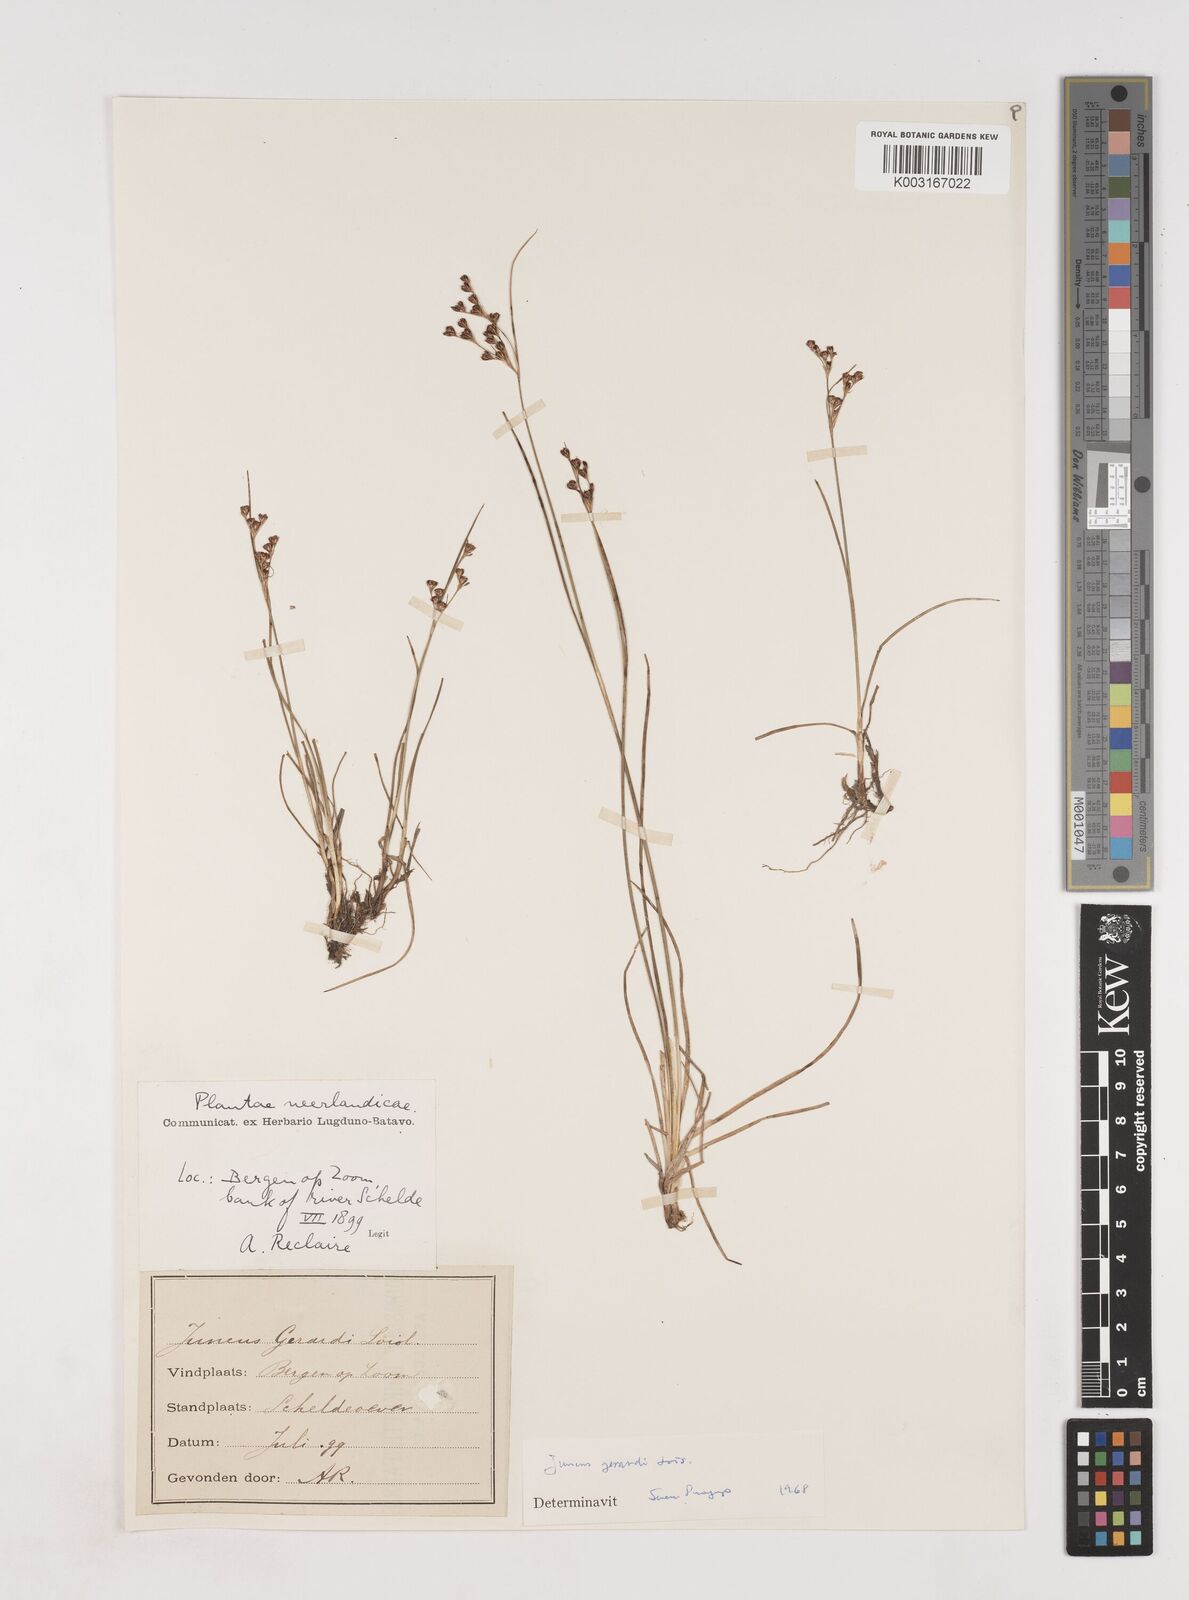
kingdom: Plantae
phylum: Tracheophyta
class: Liliopsida
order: Poales
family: Juncaceae
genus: Juncus
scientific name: Juncus gerardi
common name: Saltmarsh rush
